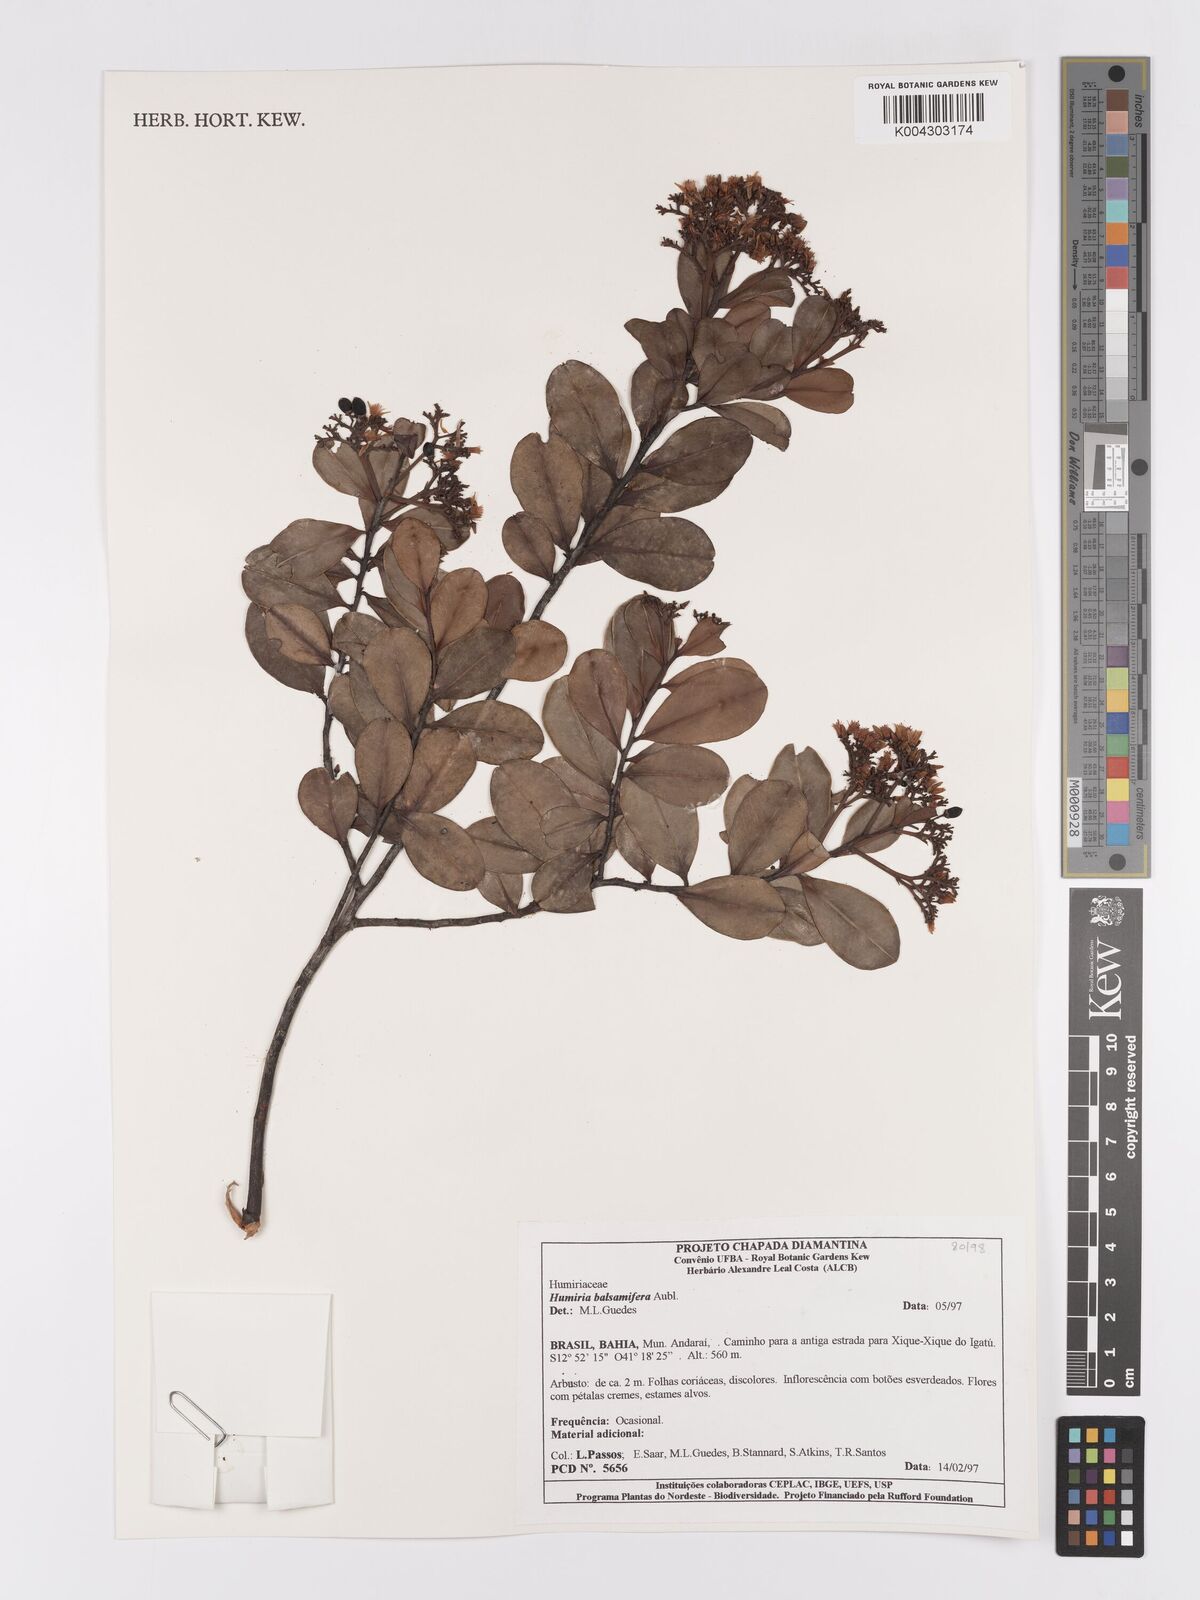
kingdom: Plantae
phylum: Tracheophyta
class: Magnoliopsida
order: Malpighiales
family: Humiriaceae
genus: Humiria
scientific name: Humiria parvifolia
